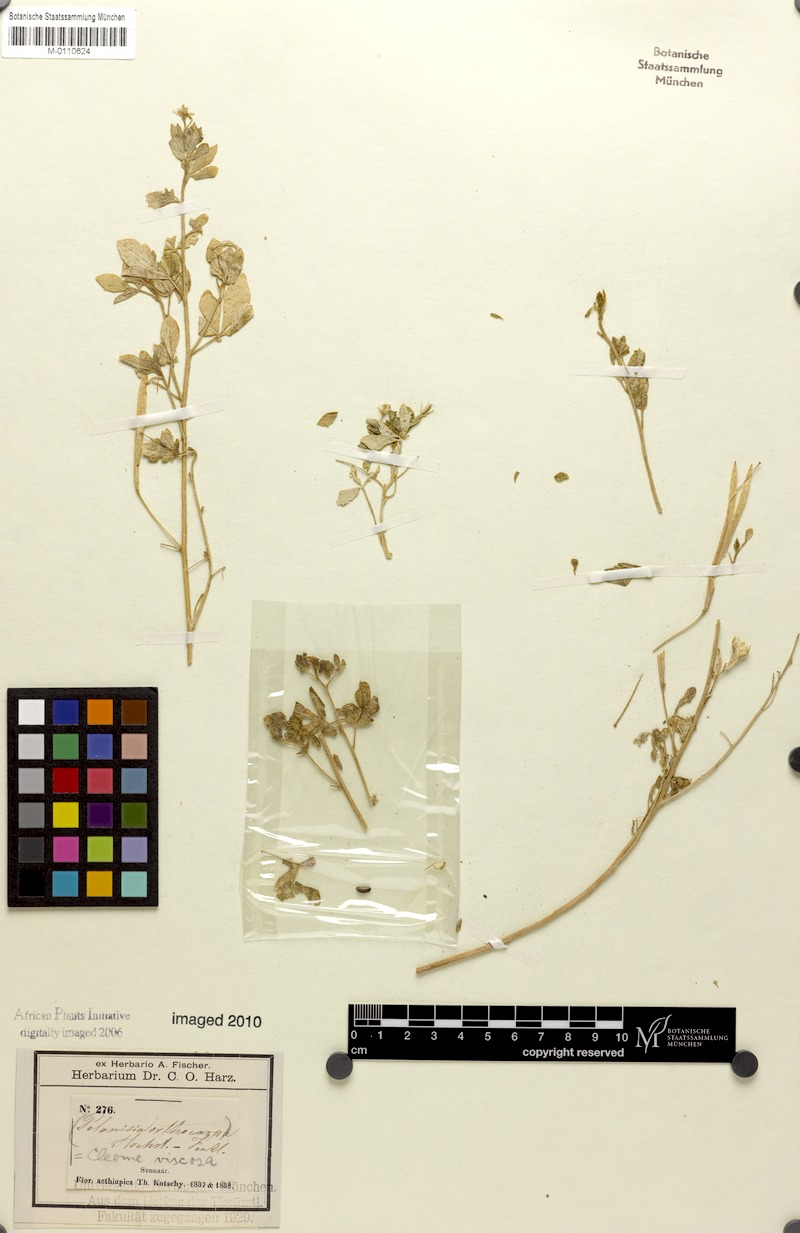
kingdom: Plantae
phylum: Tracheophyta
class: Magnoliopsida
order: Brassicales
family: Cleomaceae
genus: Arivela
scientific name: Arivela viscosa
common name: Asian spiderflower
